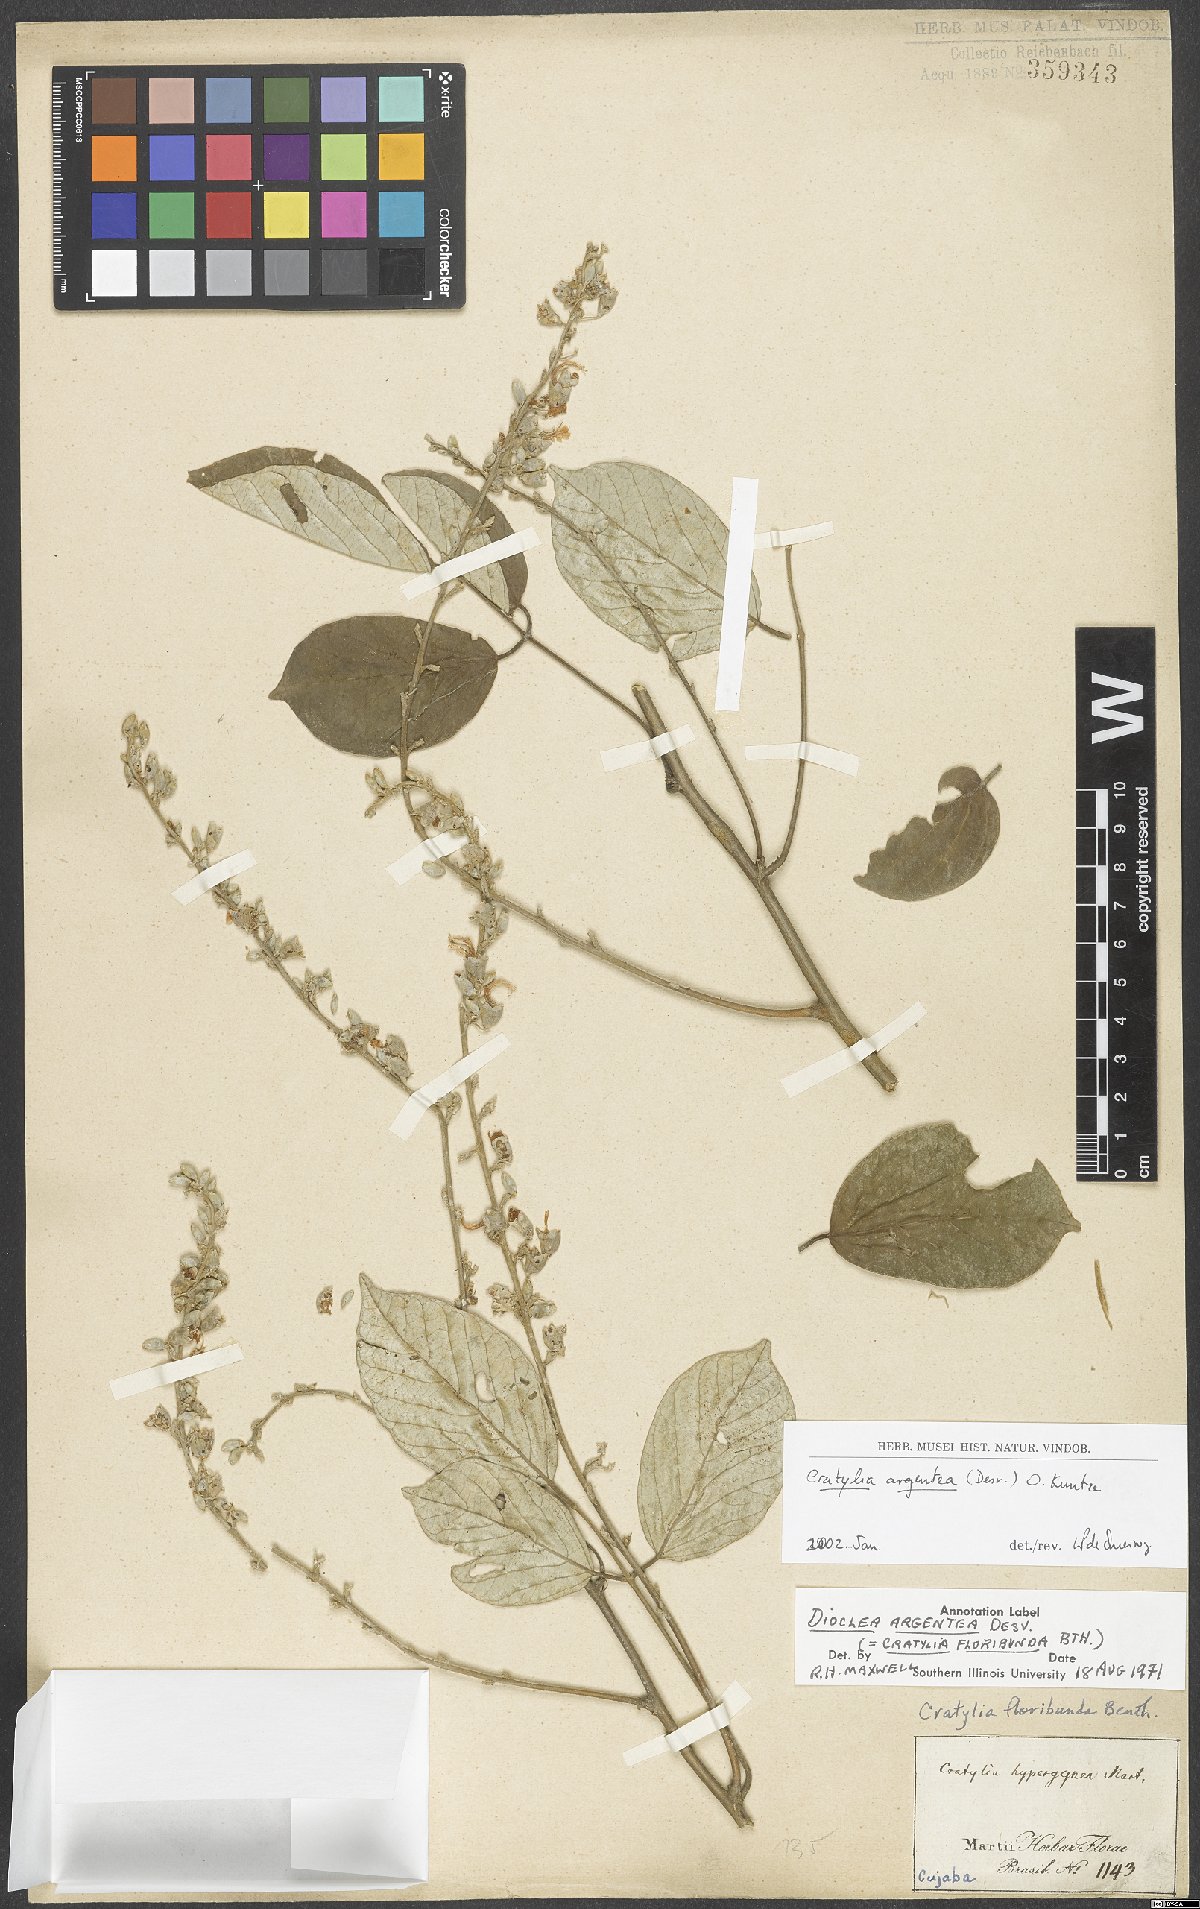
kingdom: Plantae
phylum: Tracheophyta
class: Magnoliopsida
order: Fabales
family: Fabaceae
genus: Cratylia
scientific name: Cratylia argentea
